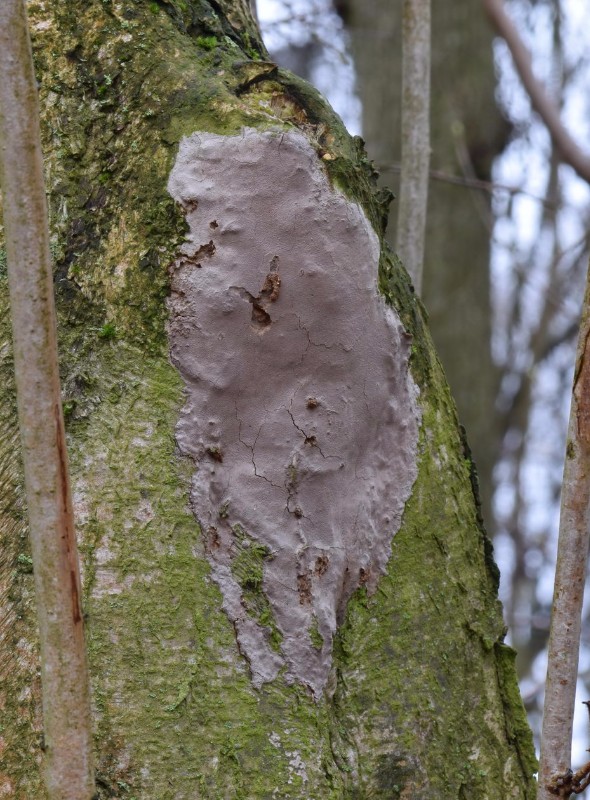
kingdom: Fungi
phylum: Basidiomycota
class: Agaricomycetes
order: Hymenochaetales
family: Hymenochaetaceae
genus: Fomitiporia
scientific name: Fomitiporia punctata
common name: pude-ildporesvamp
